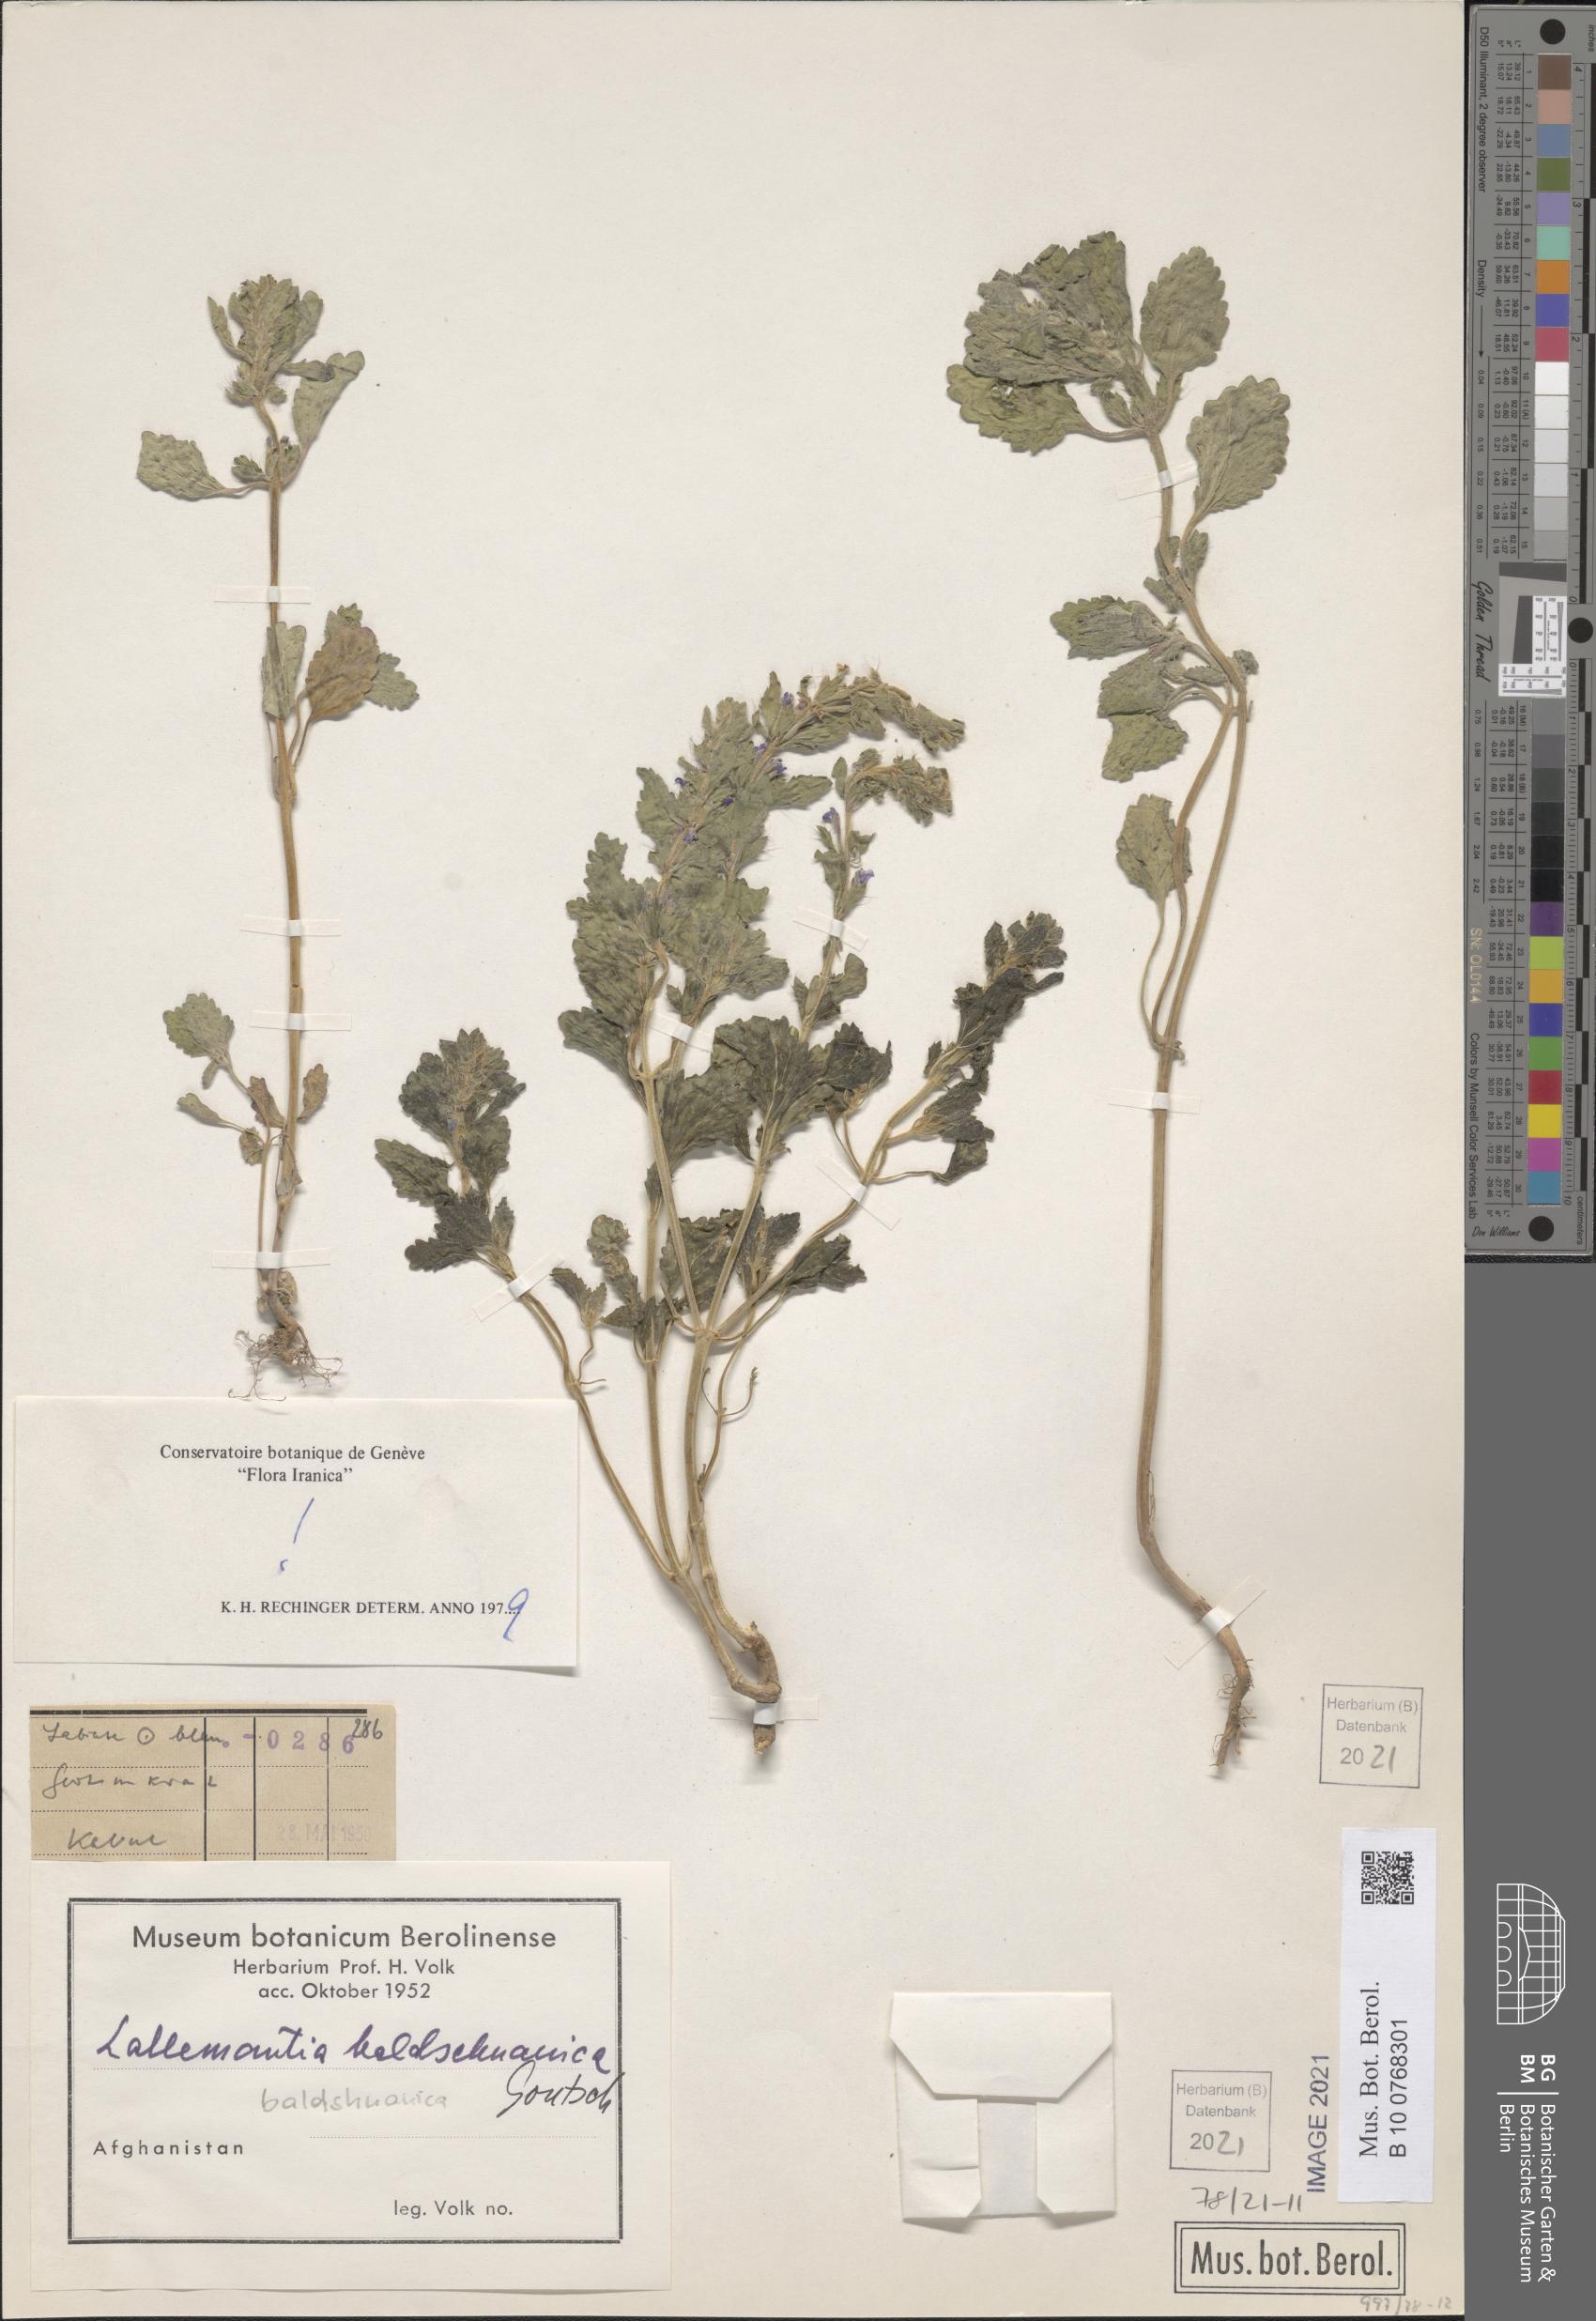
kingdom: Plantae
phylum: Tracheophyta
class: Magnoliopsida
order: Lamiales
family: Lamiaceae
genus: Lallemantia
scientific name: Lallemantia baldshuanica
